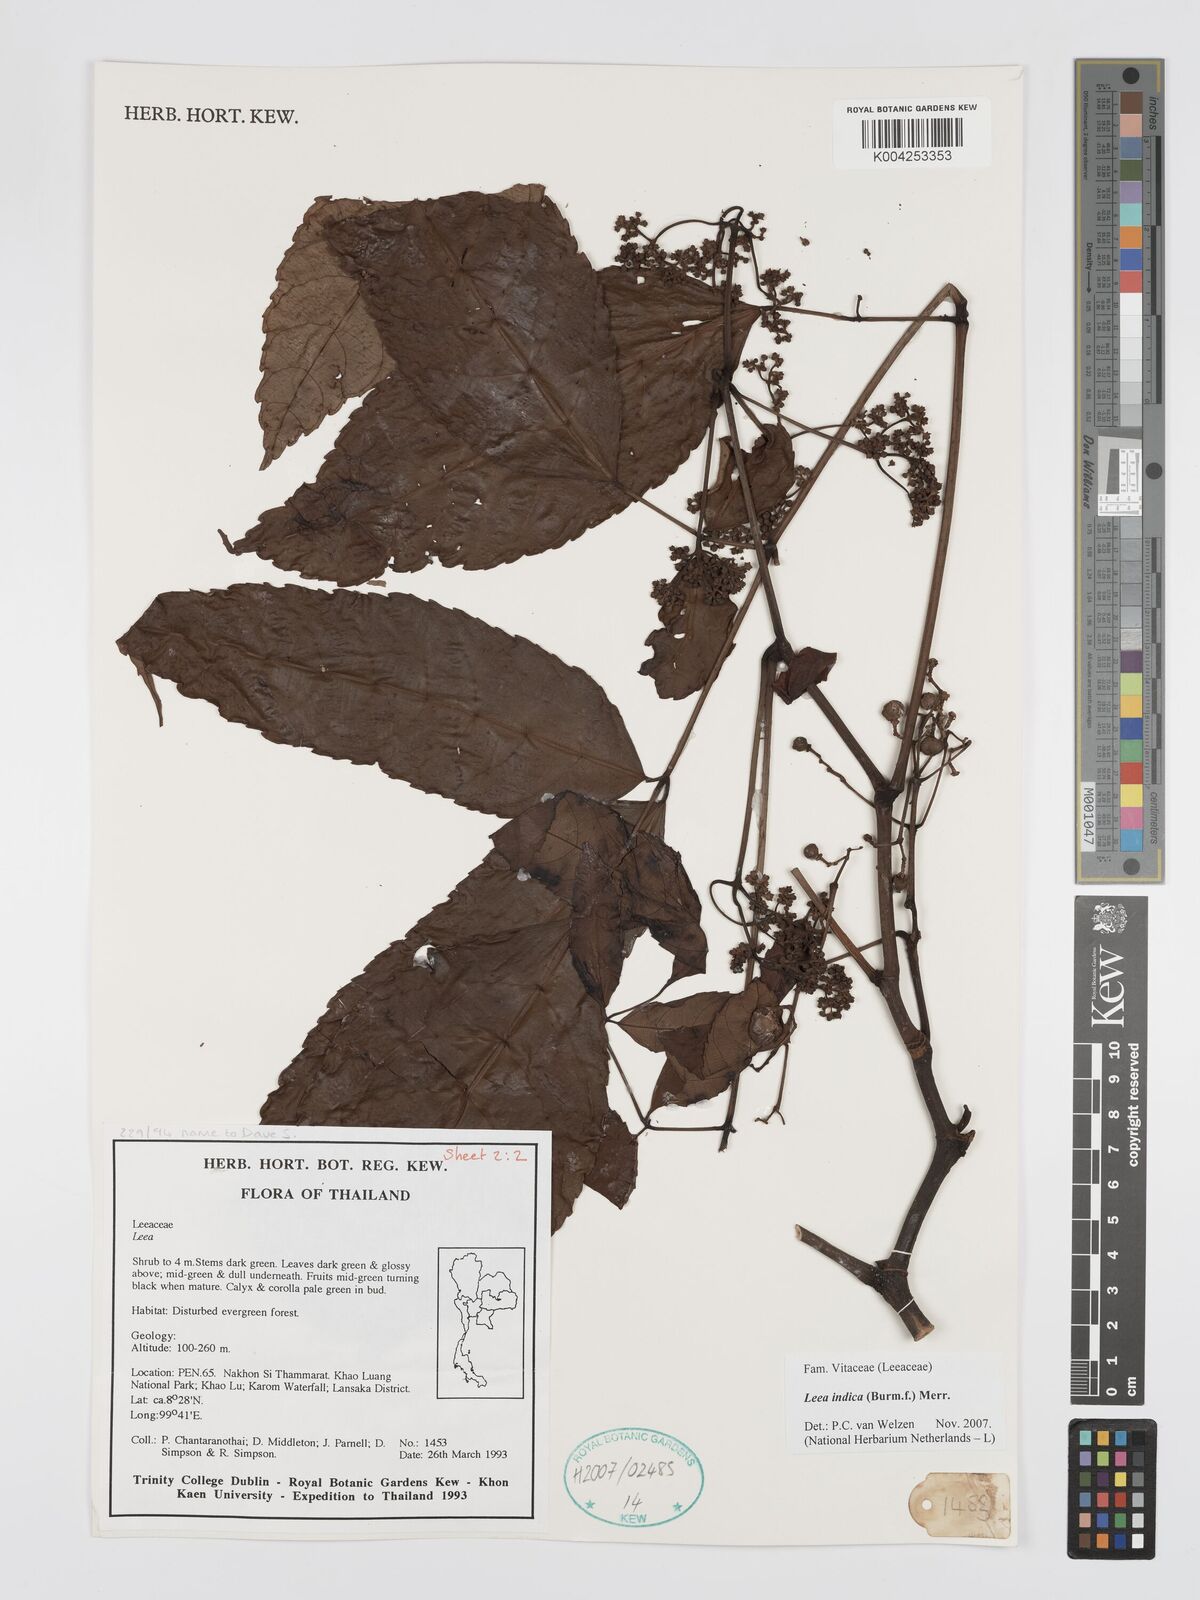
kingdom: Plantae
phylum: Tracheophyta
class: Magnoliopsida
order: Vitales
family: Vitaceae
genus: Leea
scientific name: Leea indica
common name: Bandicoot-berry
